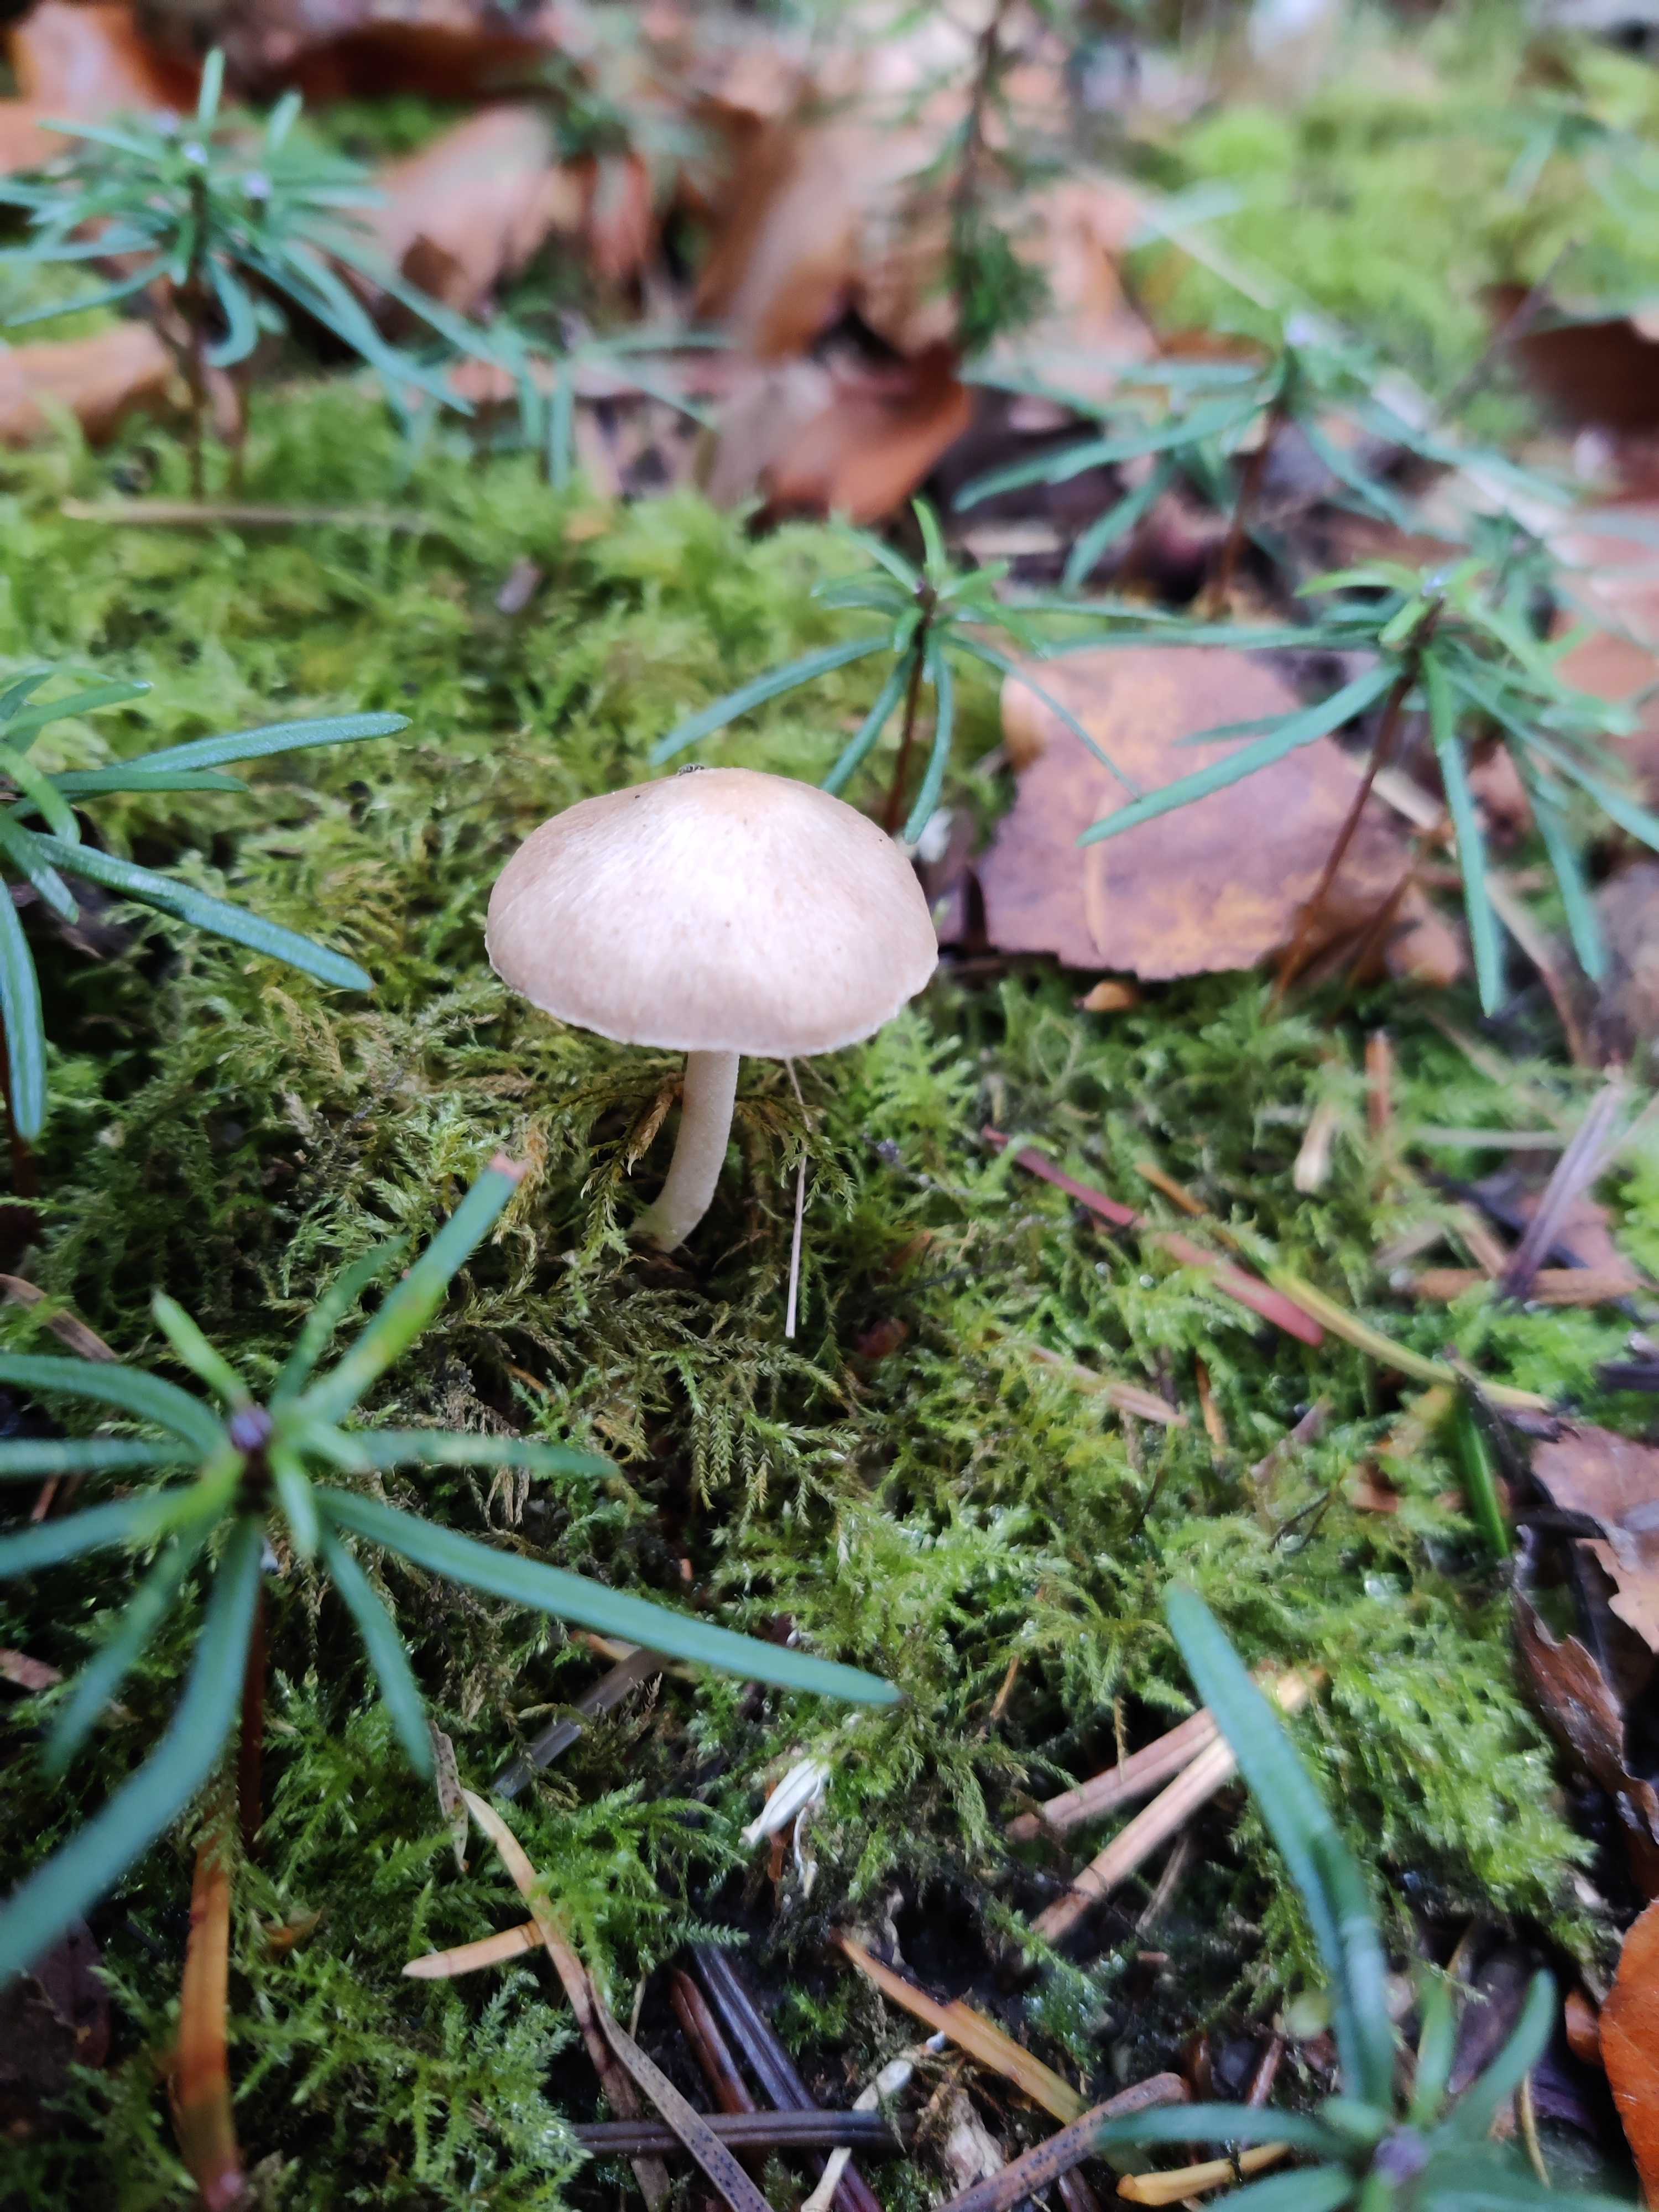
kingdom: Fungi
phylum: Basidiomycota
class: Agaricomycetes
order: Agaricales
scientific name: Agaricales
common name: champignonordenen
